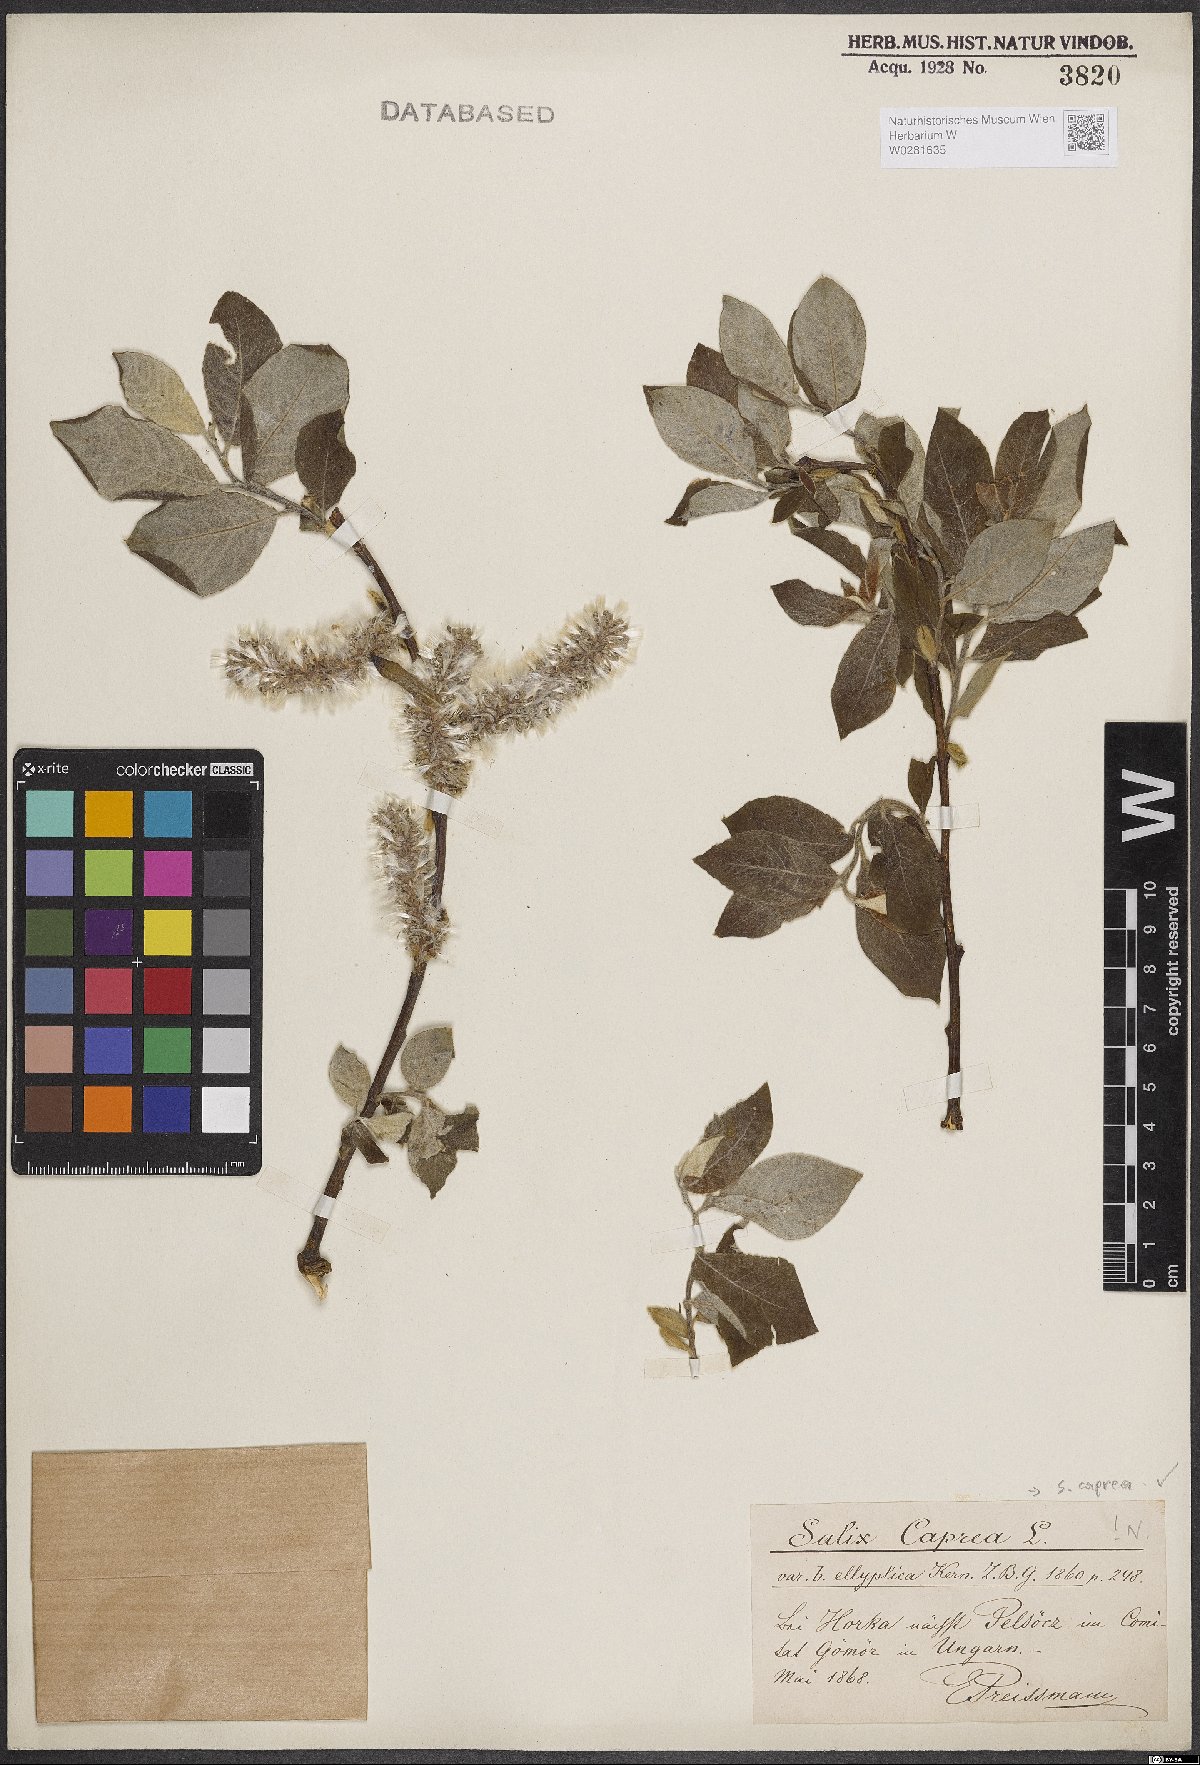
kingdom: Plantae
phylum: Tracheophyta
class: Magnoliopsida
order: Malpighiales
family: Salicaceae
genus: Salix
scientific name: Salix caprea
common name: Goat willow
